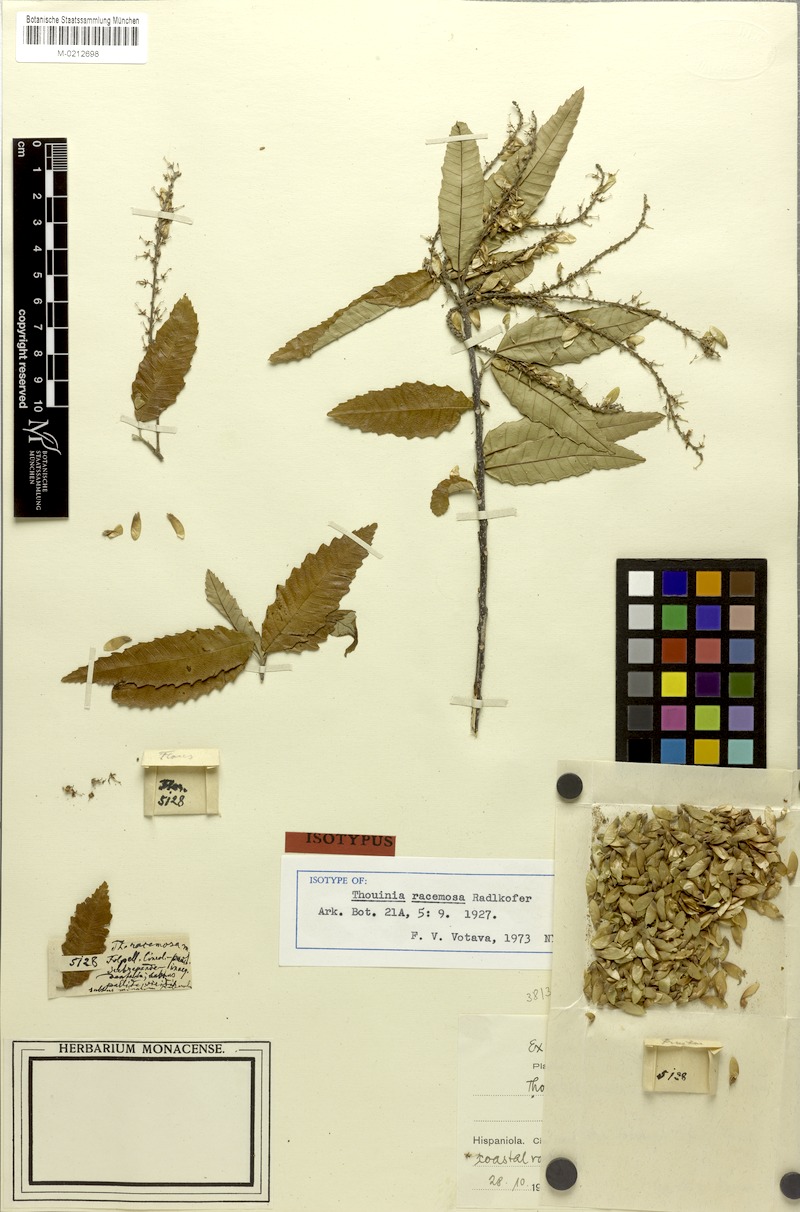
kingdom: Plantae
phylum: Tracheophyta
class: Magnoliopsida
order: Sapindales
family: Sapindaceae
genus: Thouinia
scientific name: Thouinia racemosa
